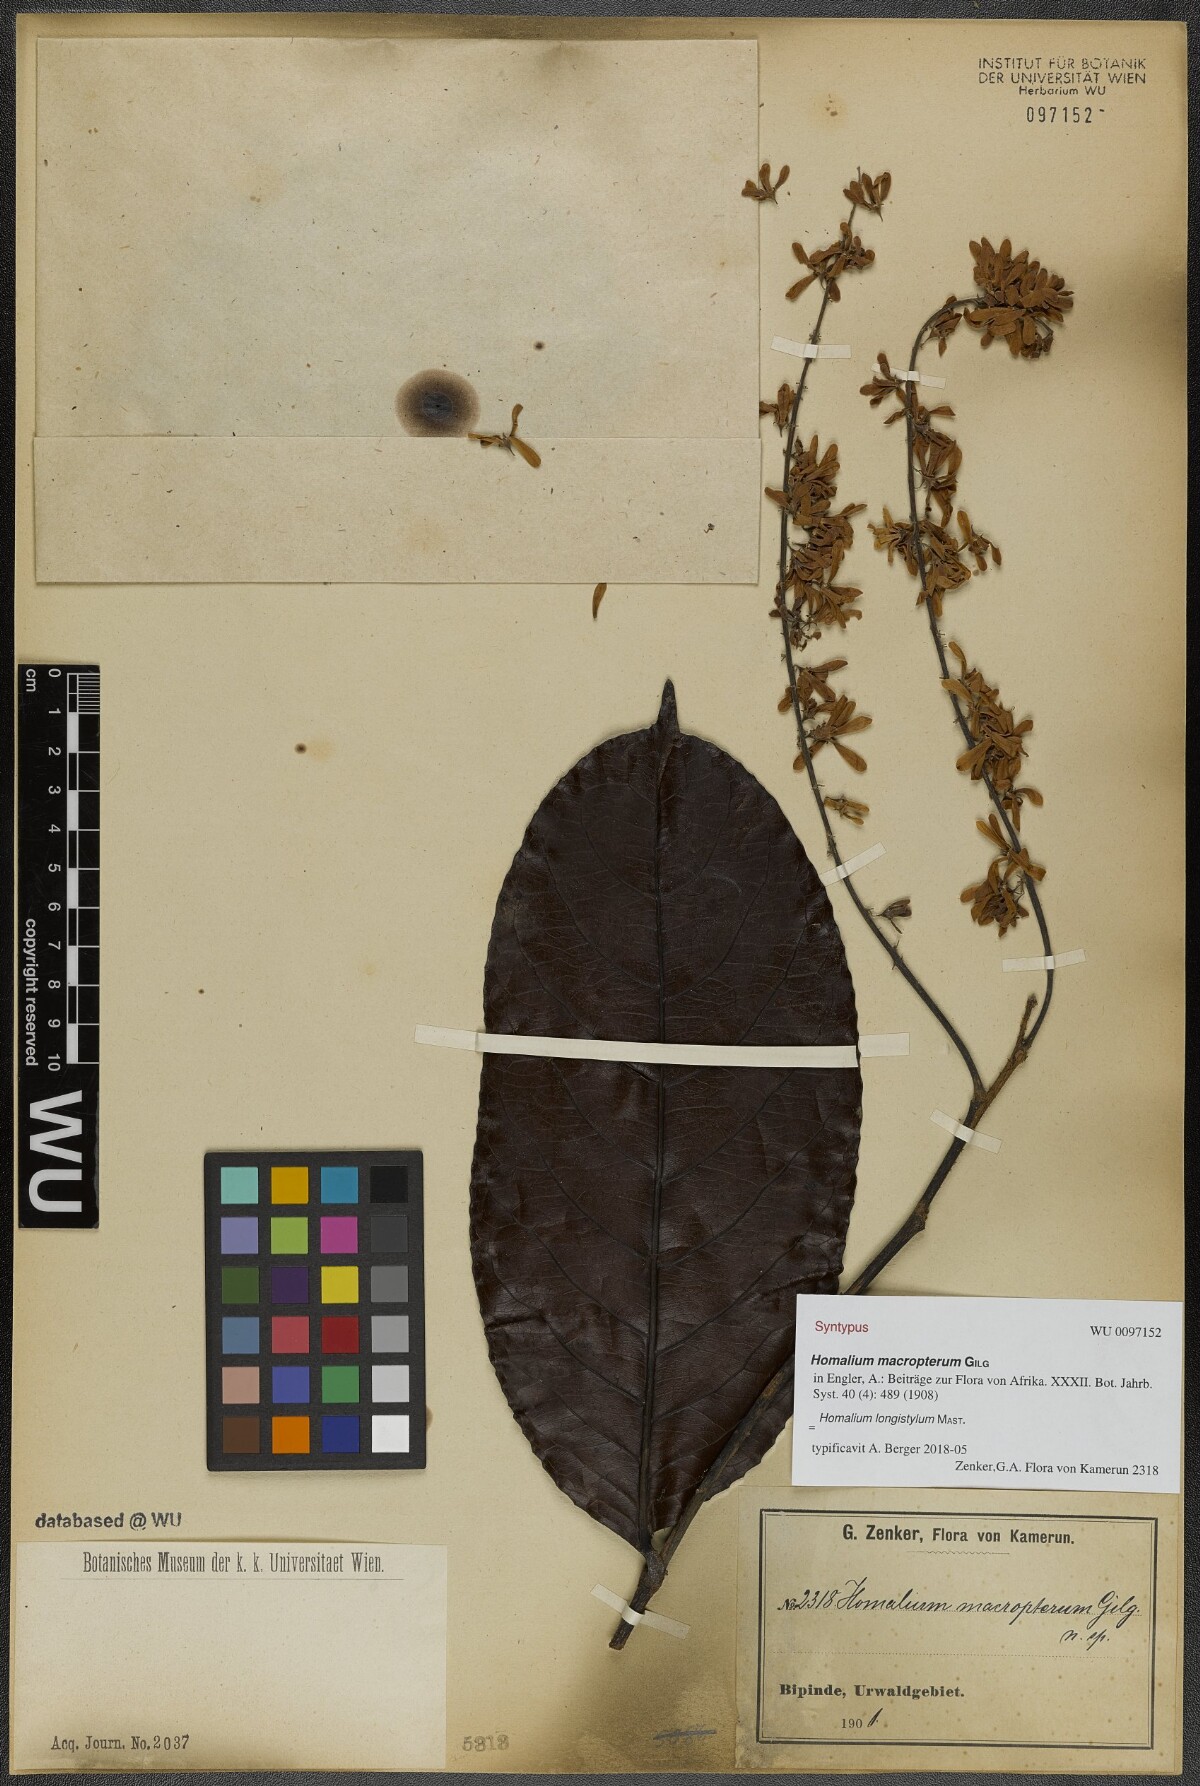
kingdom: Plantae
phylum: Tracheophyta
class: Magnoliopsida
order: Malpighiales
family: Salicaceae
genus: Homalium
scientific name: Homalium longistylum
